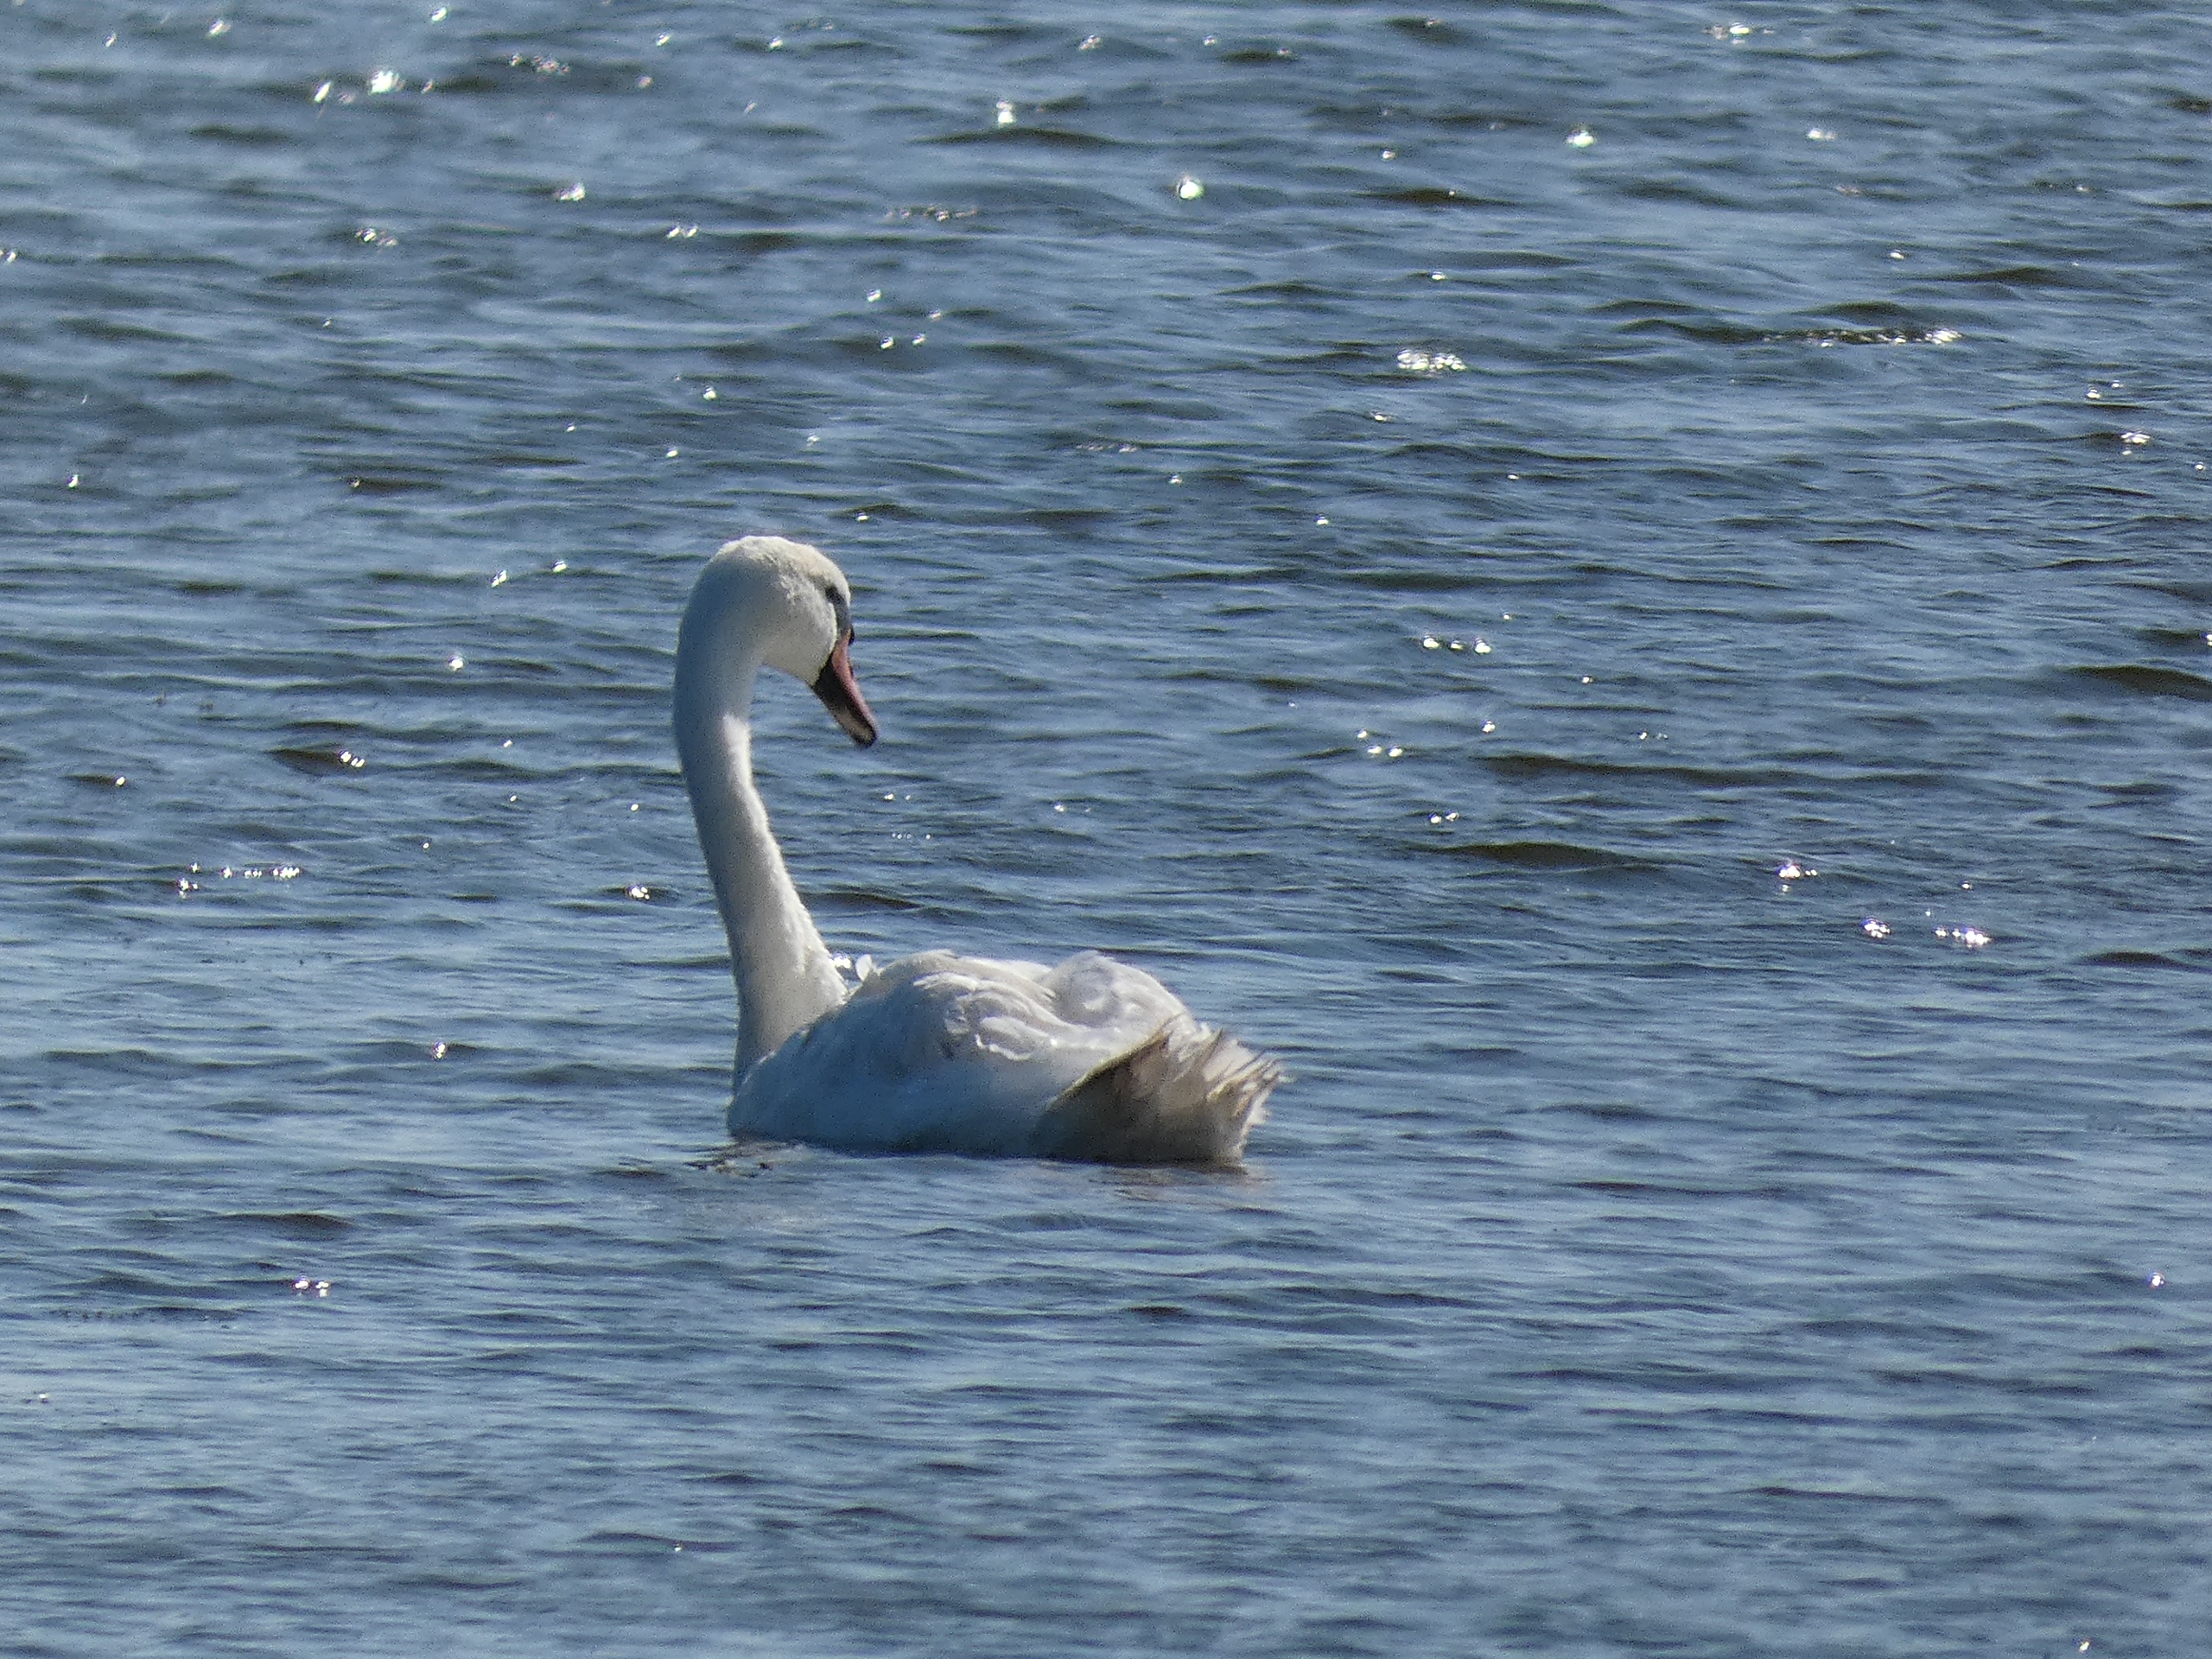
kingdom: Animalia
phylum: Chordata
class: Aves
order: Anseriformes
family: Anatidae
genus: Cygnus
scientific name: Cygnus olor
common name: Knopsvane
